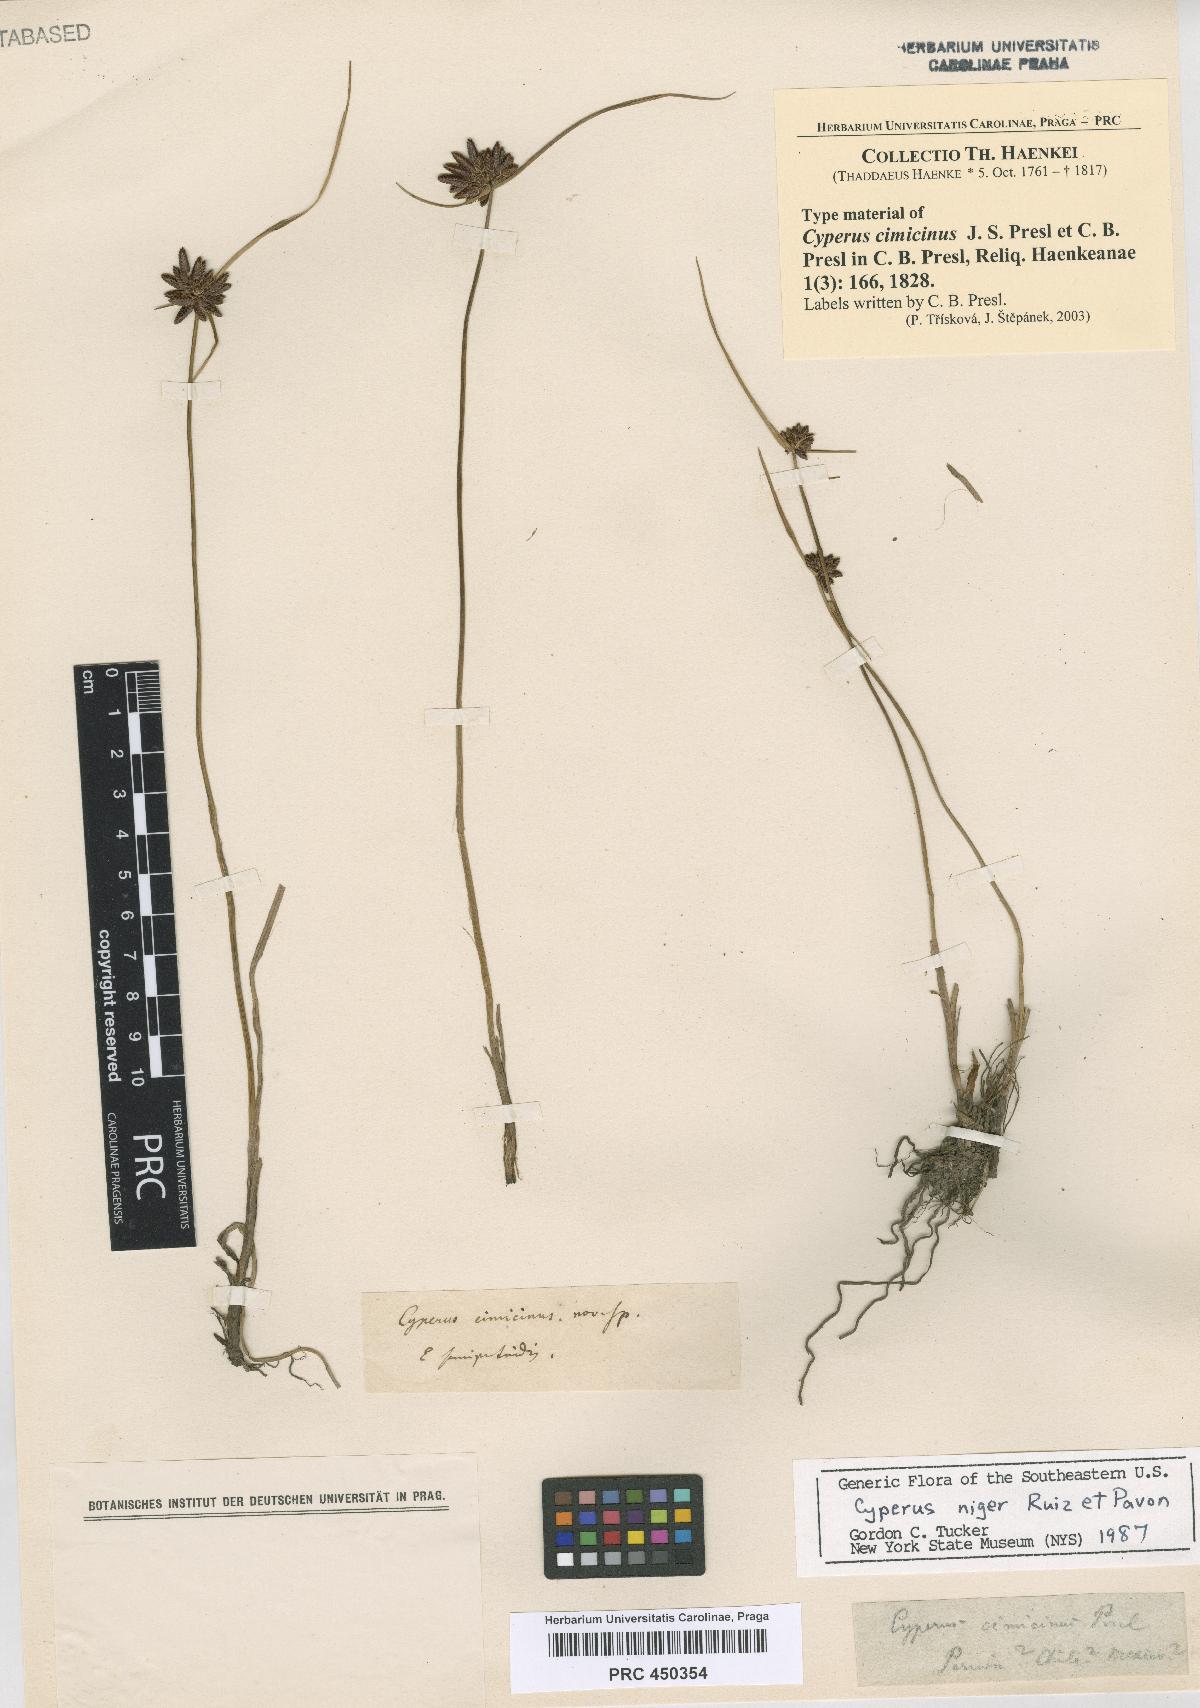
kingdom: Plantae
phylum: Tracheophyta
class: Liliopsida
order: Poales
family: Cyperaceae
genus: Cyperus
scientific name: Cyperus melanostachyus
